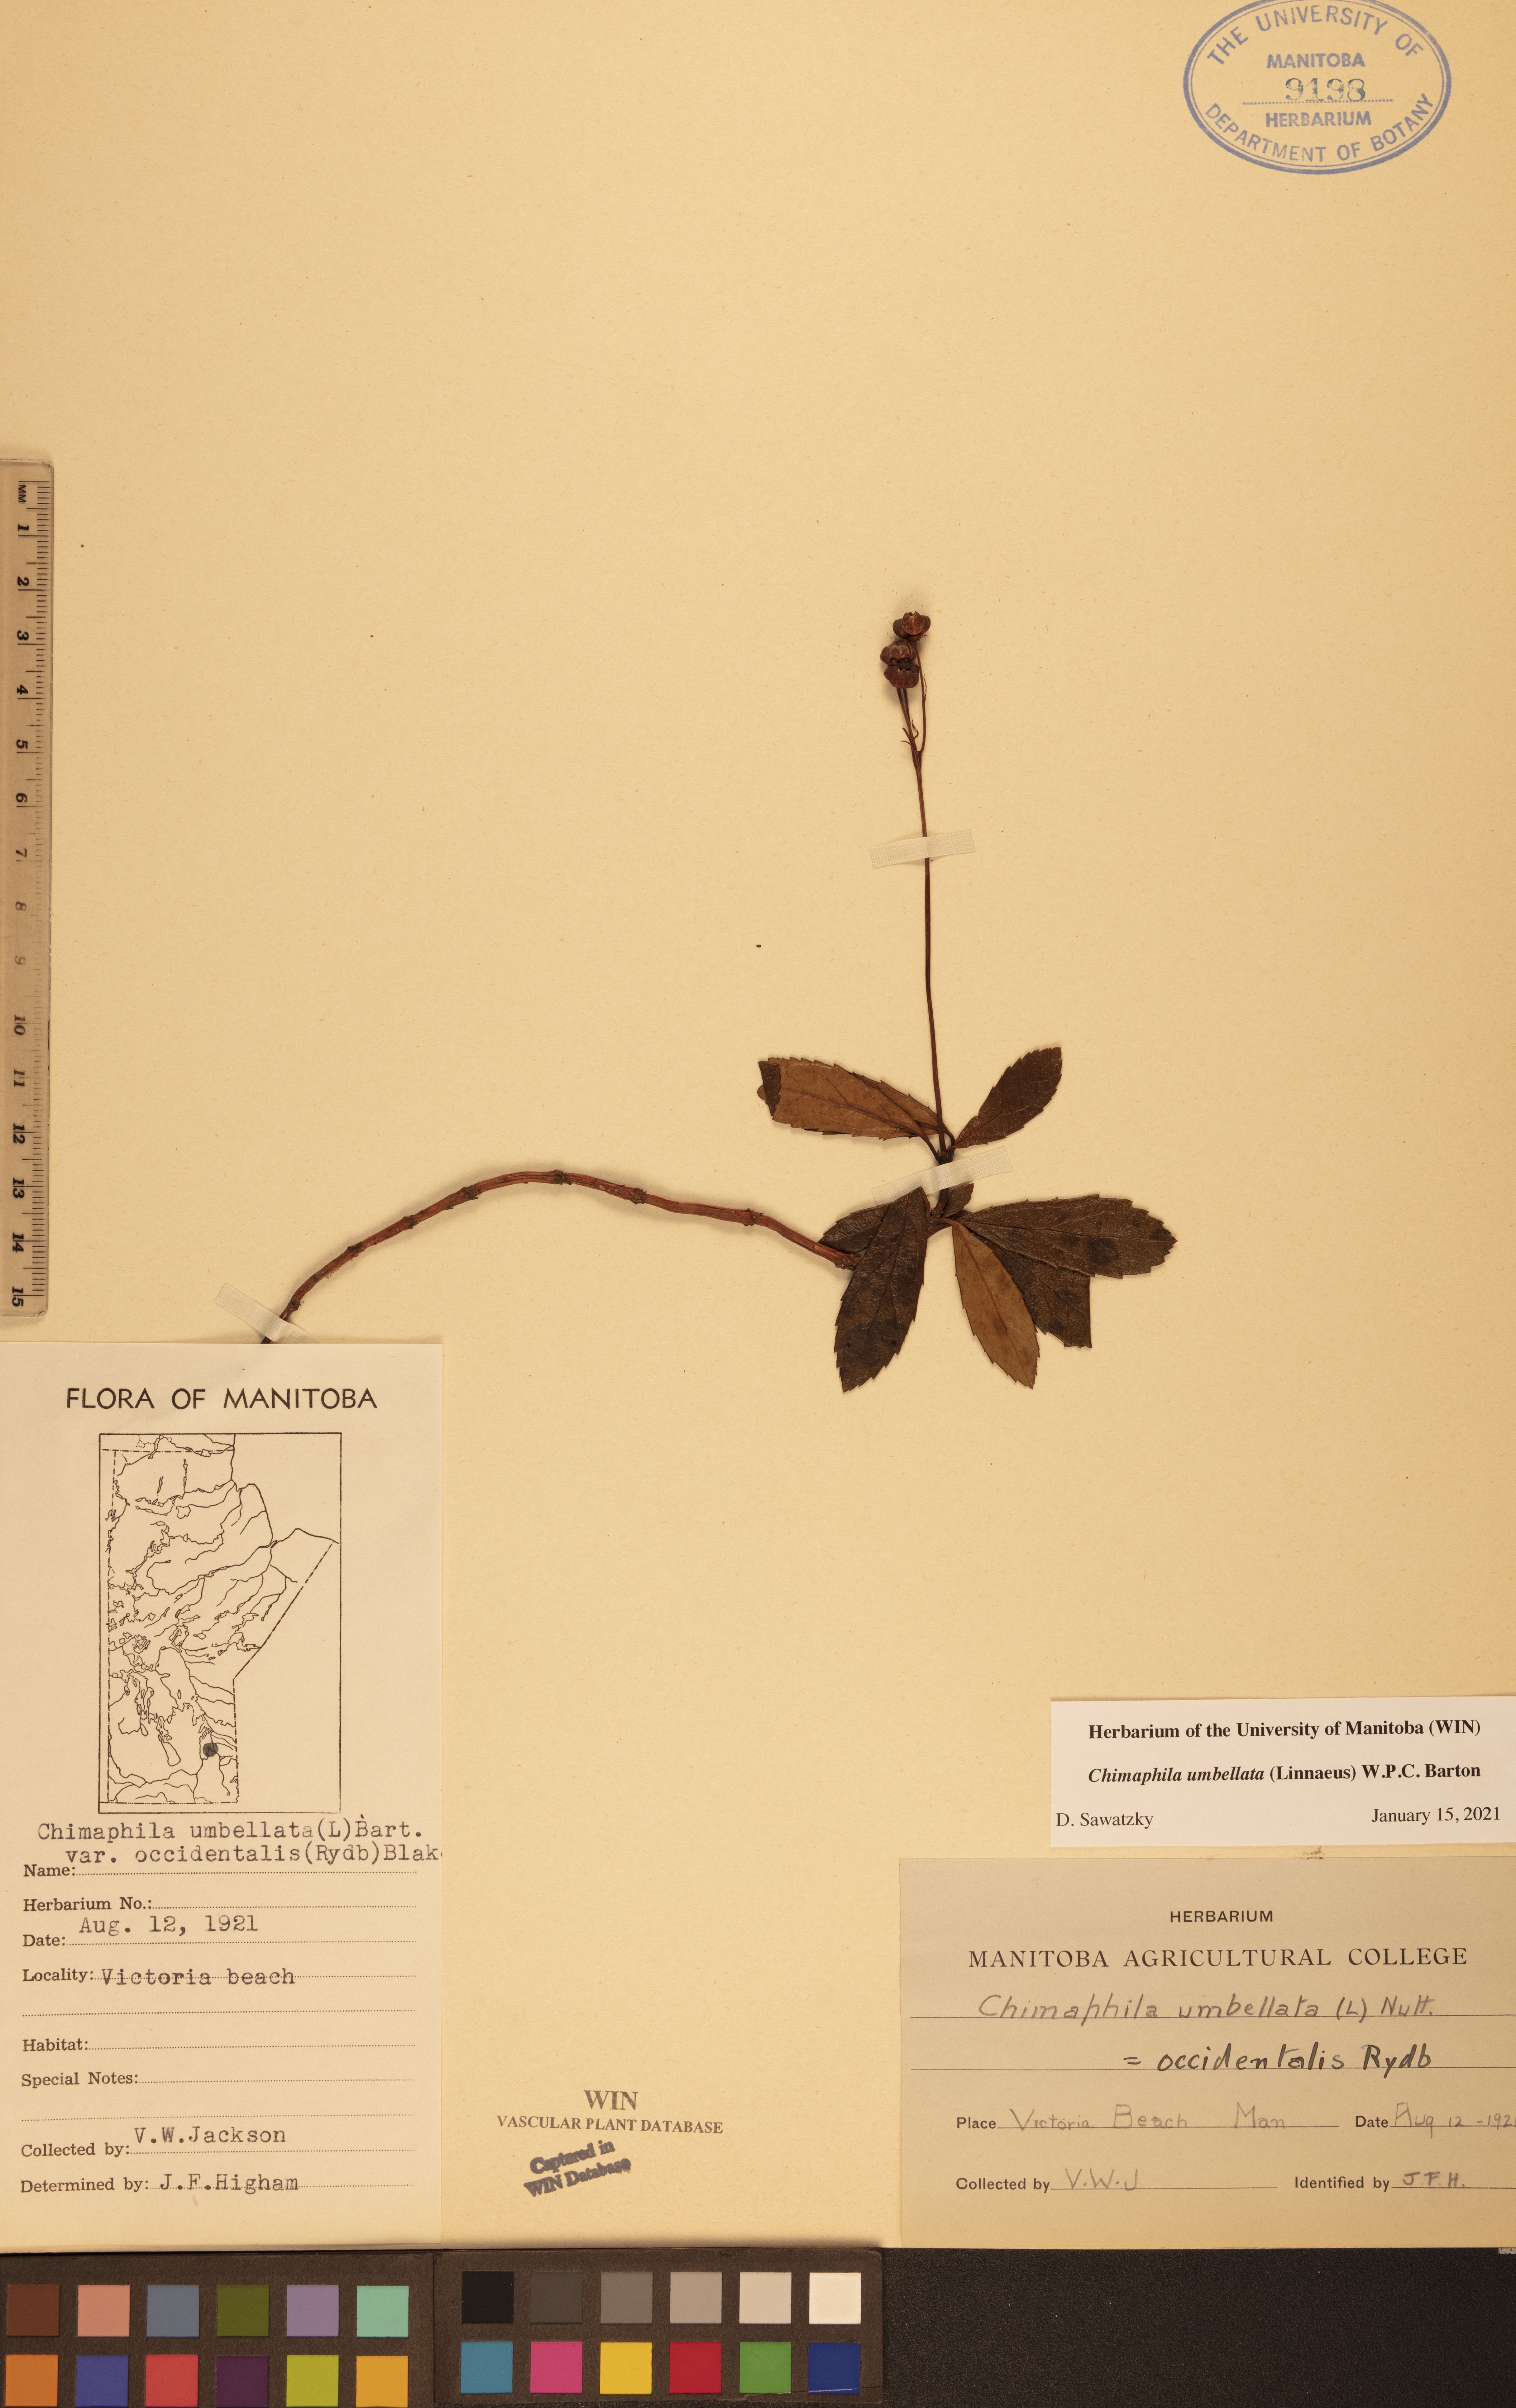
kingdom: Plantae
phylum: Tracheophyta
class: Magnoliopsida
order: Ericales
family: Ericaceae
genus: Chimaphila
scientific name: Chimaphila umbellata
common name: Pipsissewa
